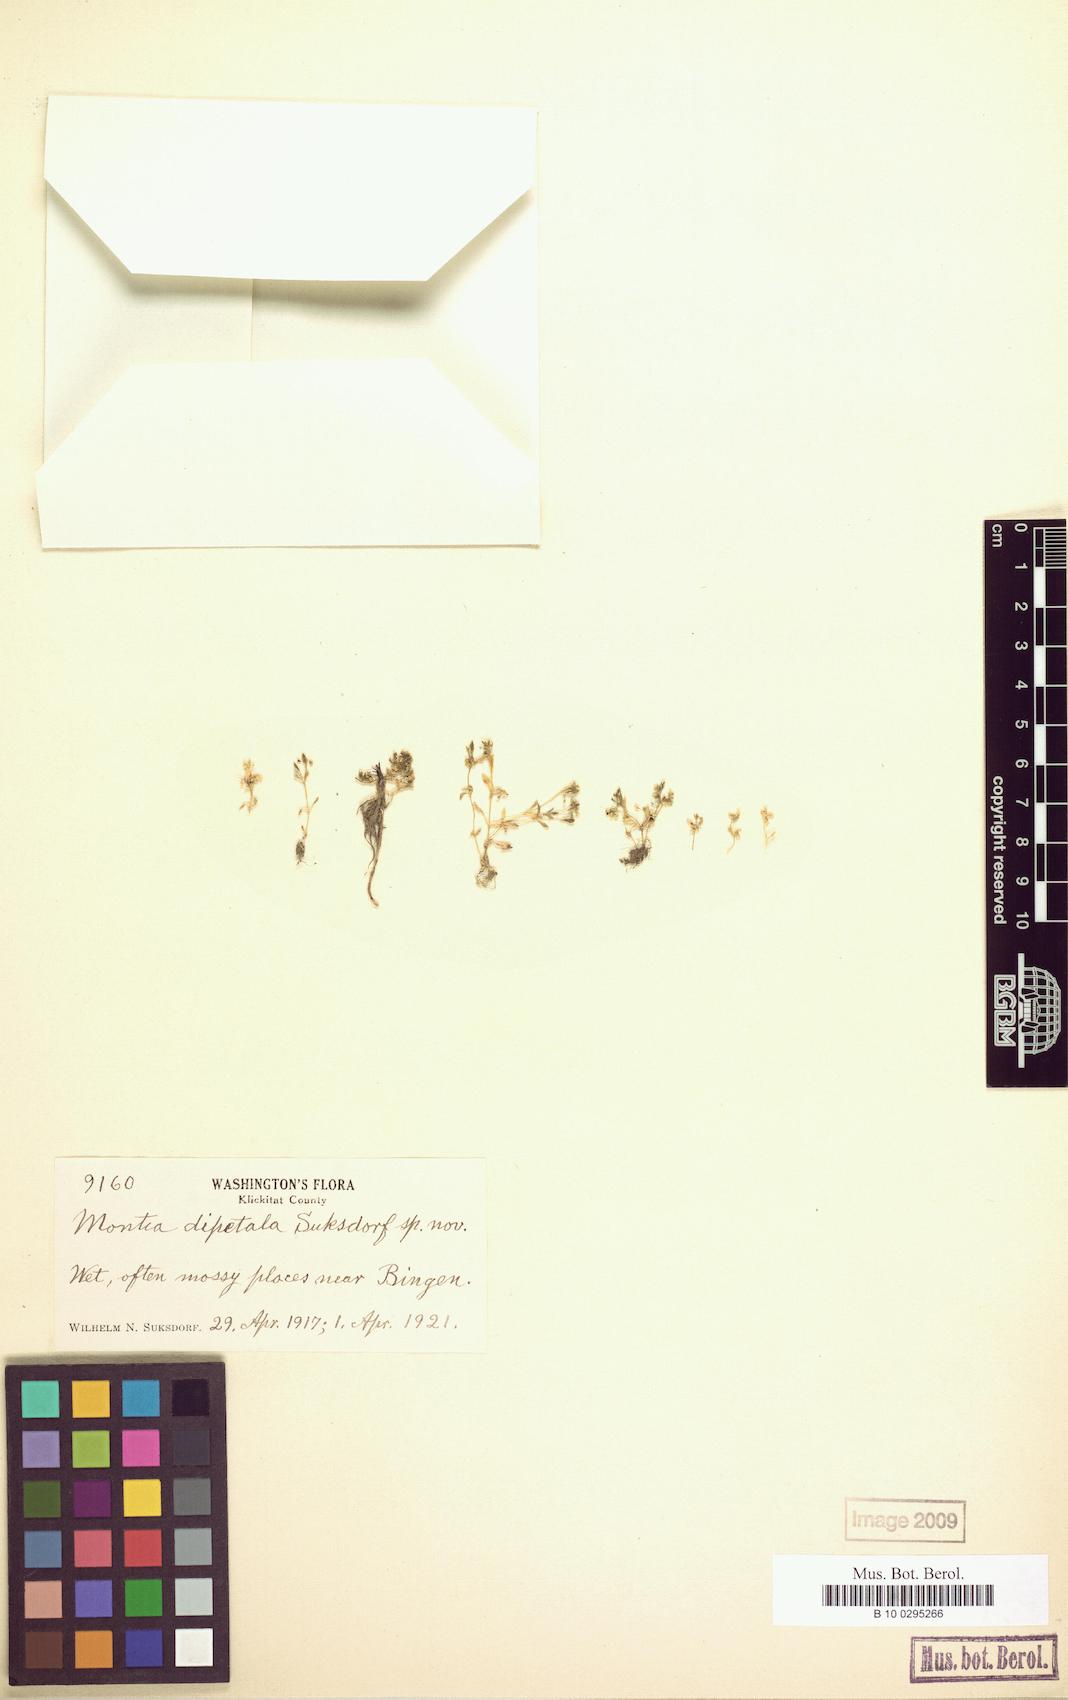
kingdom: Plantae
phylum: Tracheophyta
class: Magnoliopsida
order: Caryophyllales
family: Montiaceae
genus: Montia
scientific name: Montia fontana
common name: Blinks
